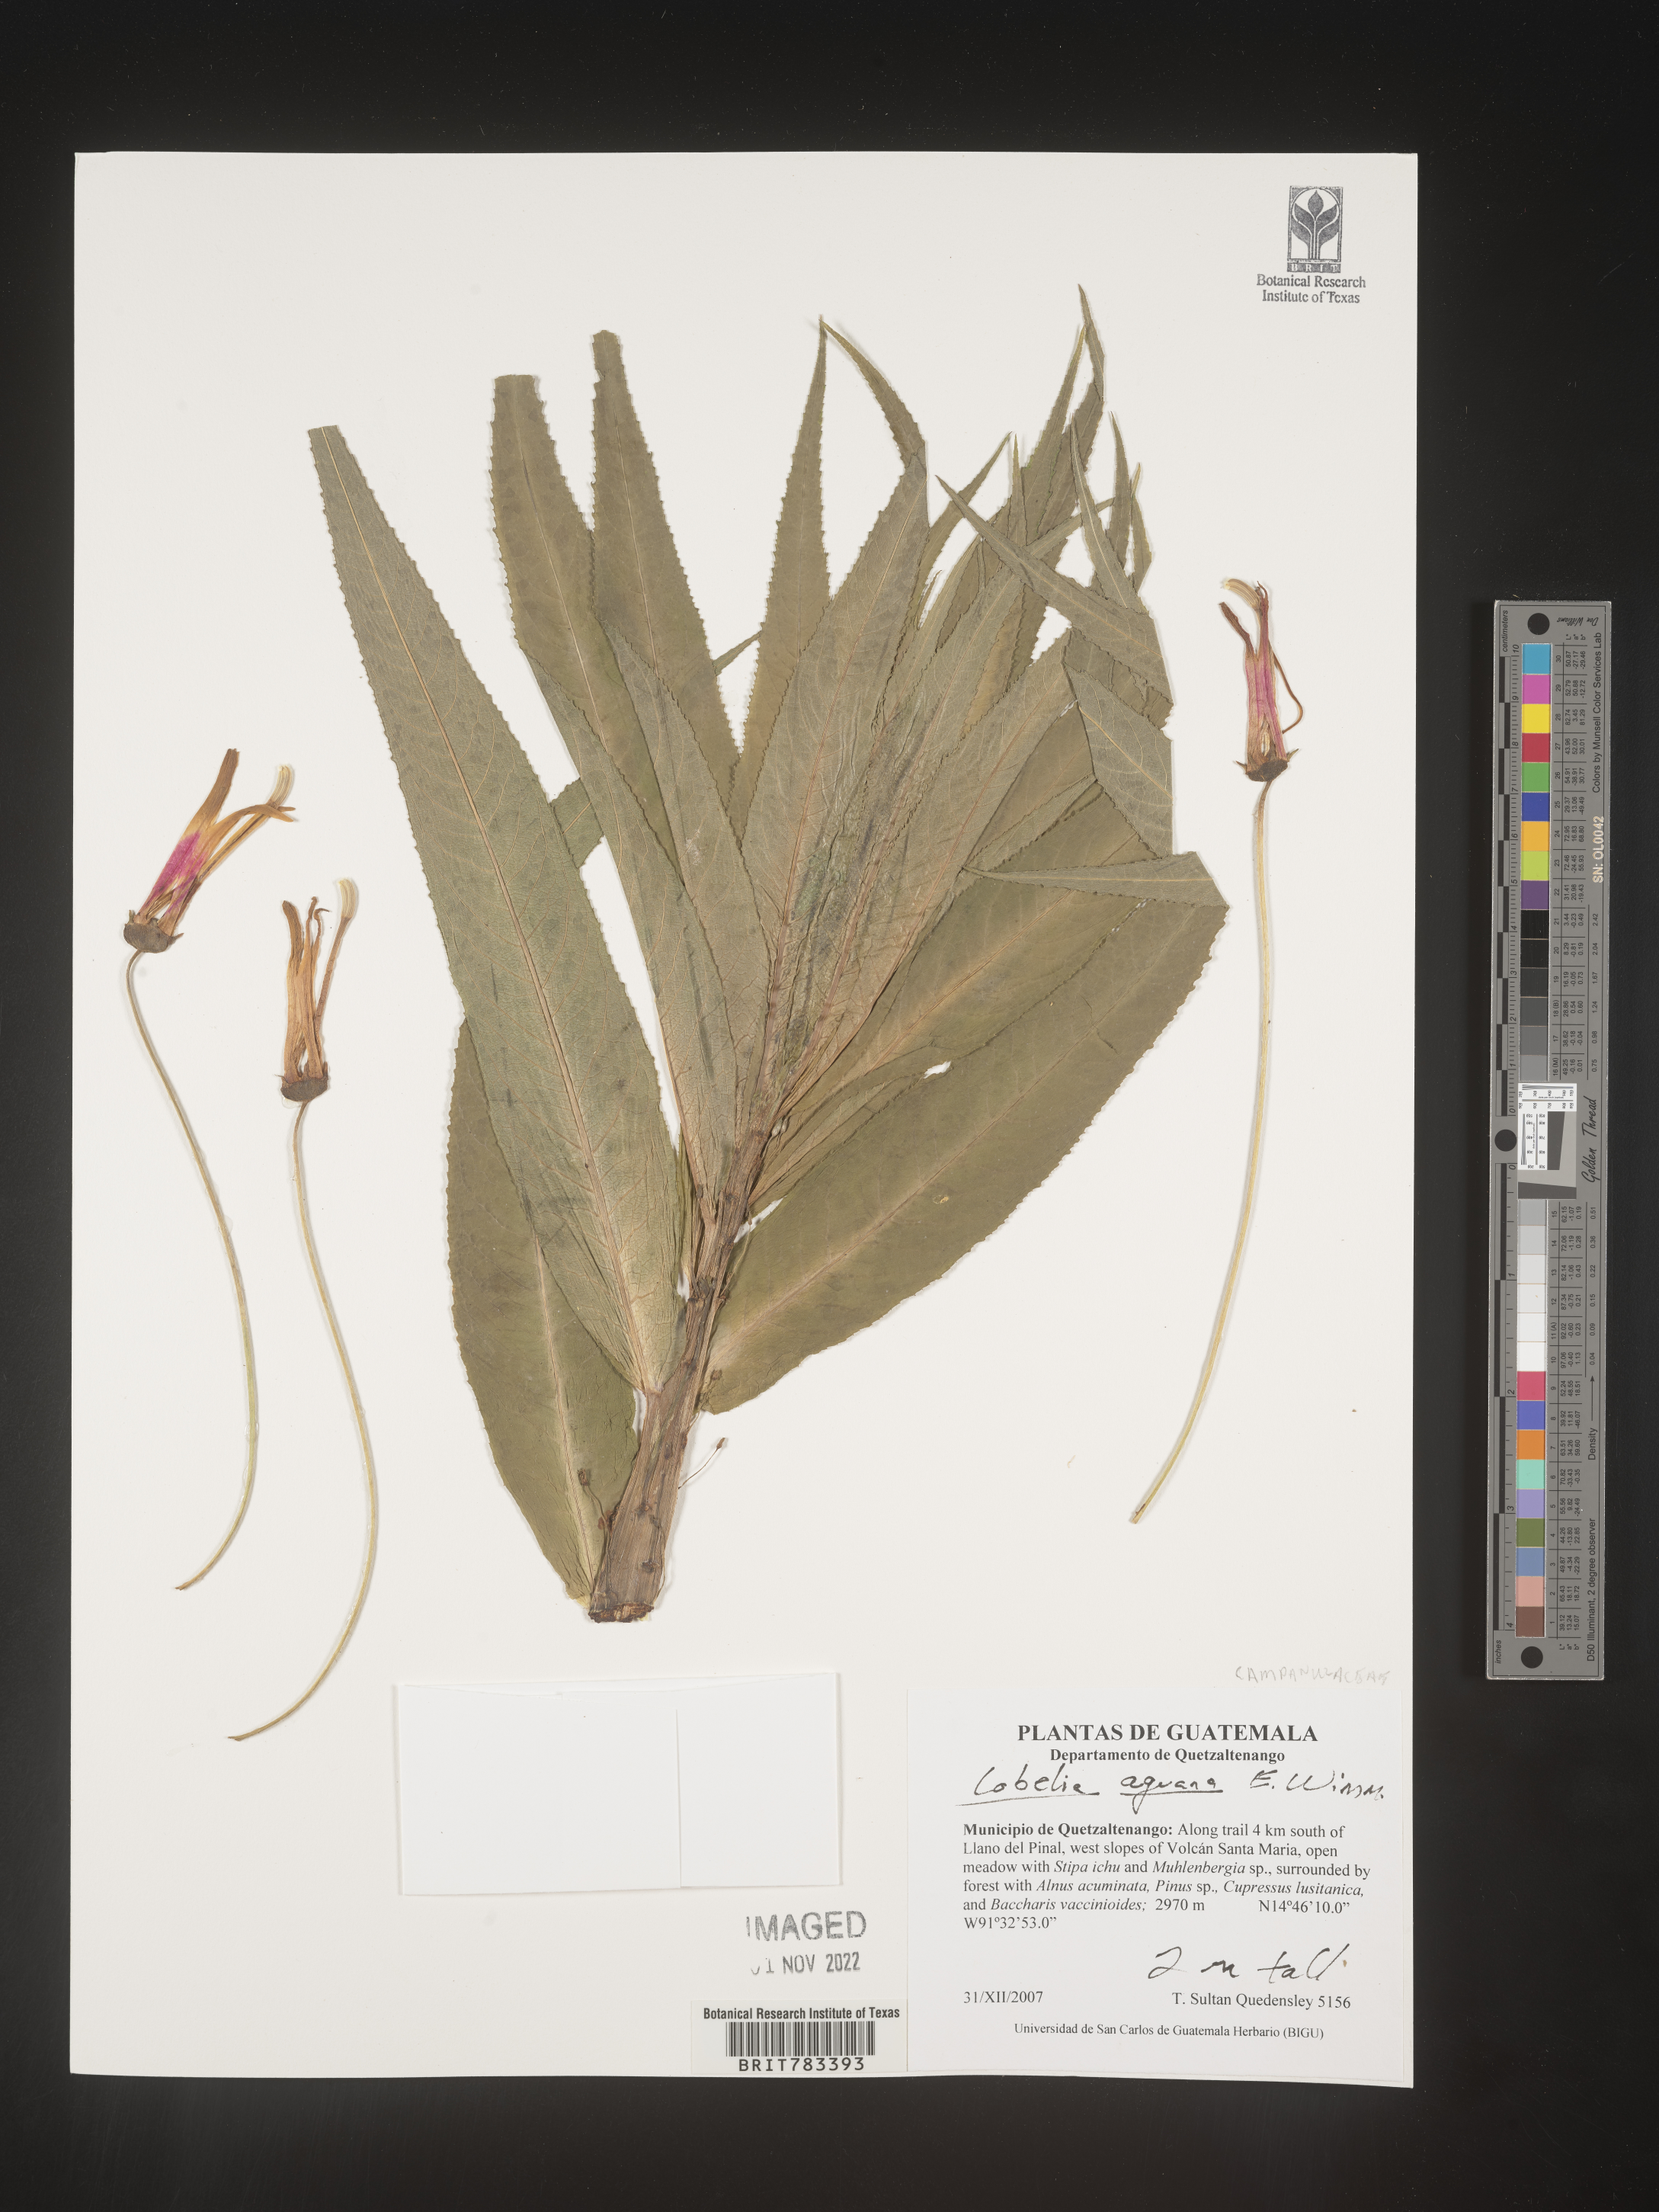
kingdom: Plantae
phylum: Tracheophyta
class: Magnoliopsida
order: Asterales
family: Campanulaceae
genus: Lobelia
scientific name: Lobelia
